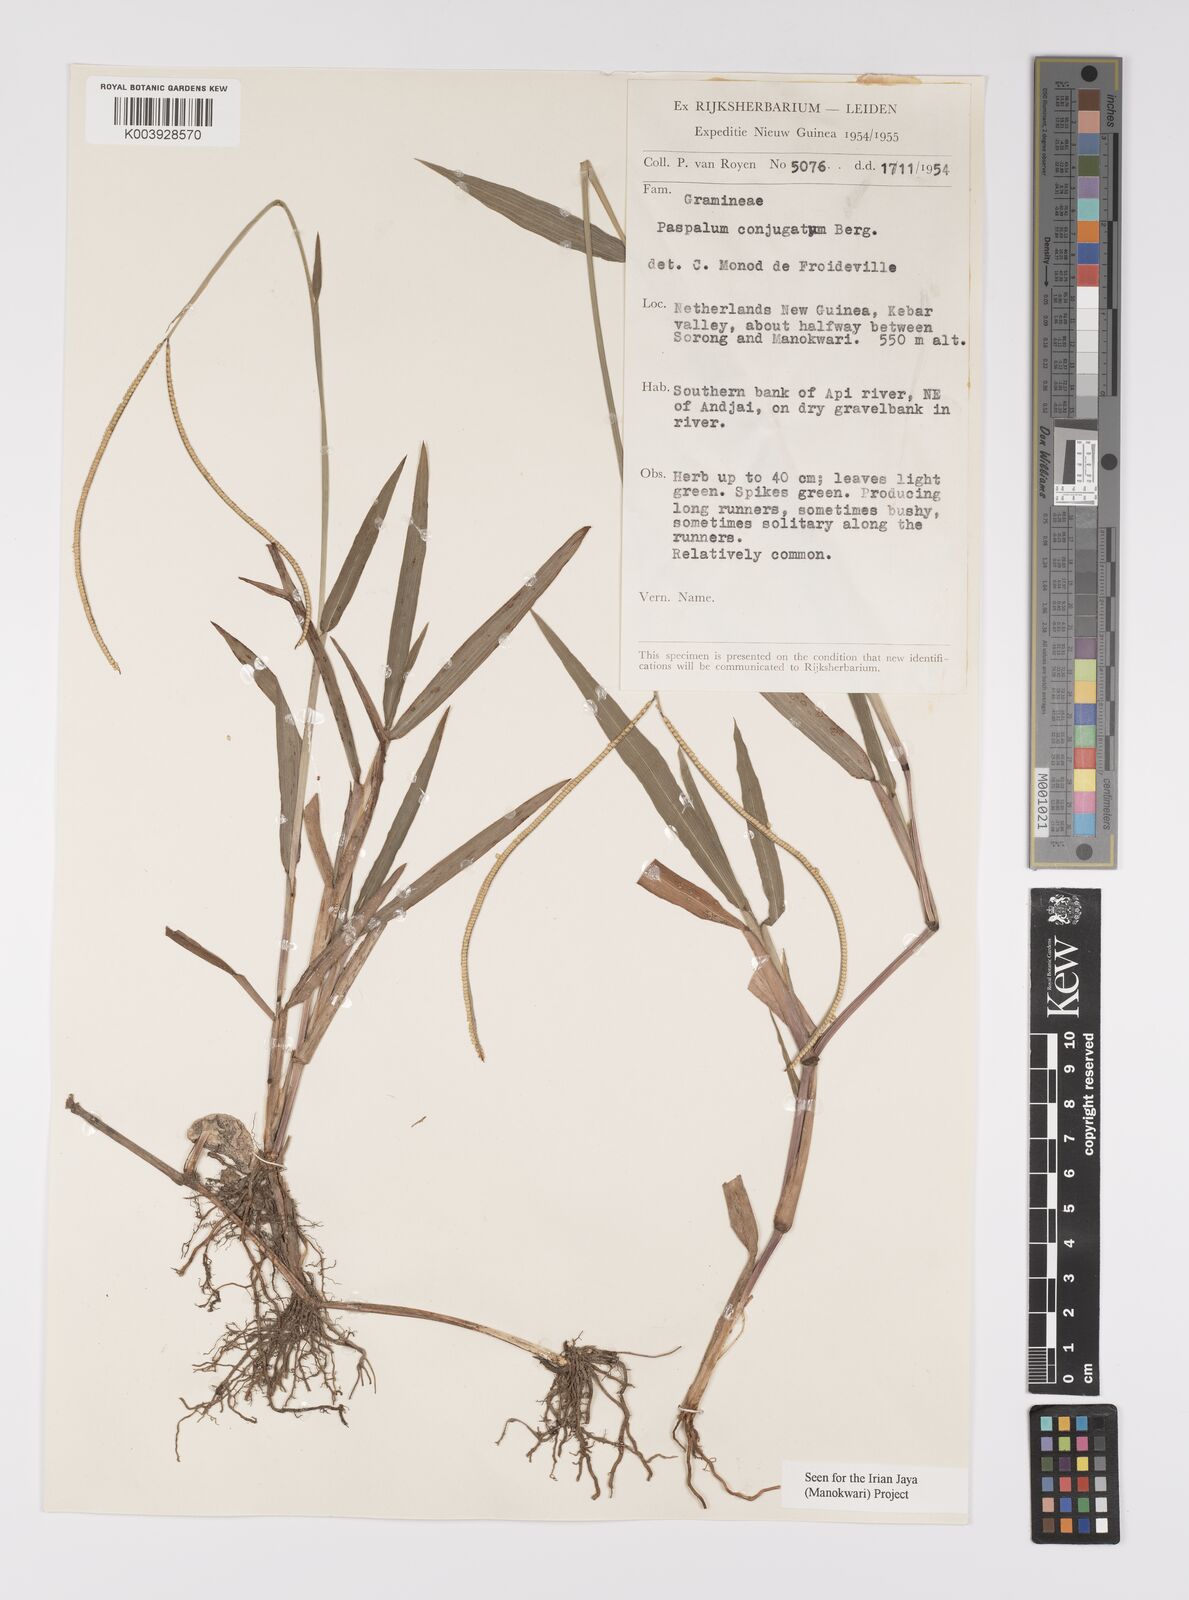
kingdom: Plantae
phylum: Tracheophyta
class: Liliopsida
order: Poales
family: Poaceae
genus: Paspalum
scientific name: Paspalum conjugatum
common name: Hilograss
